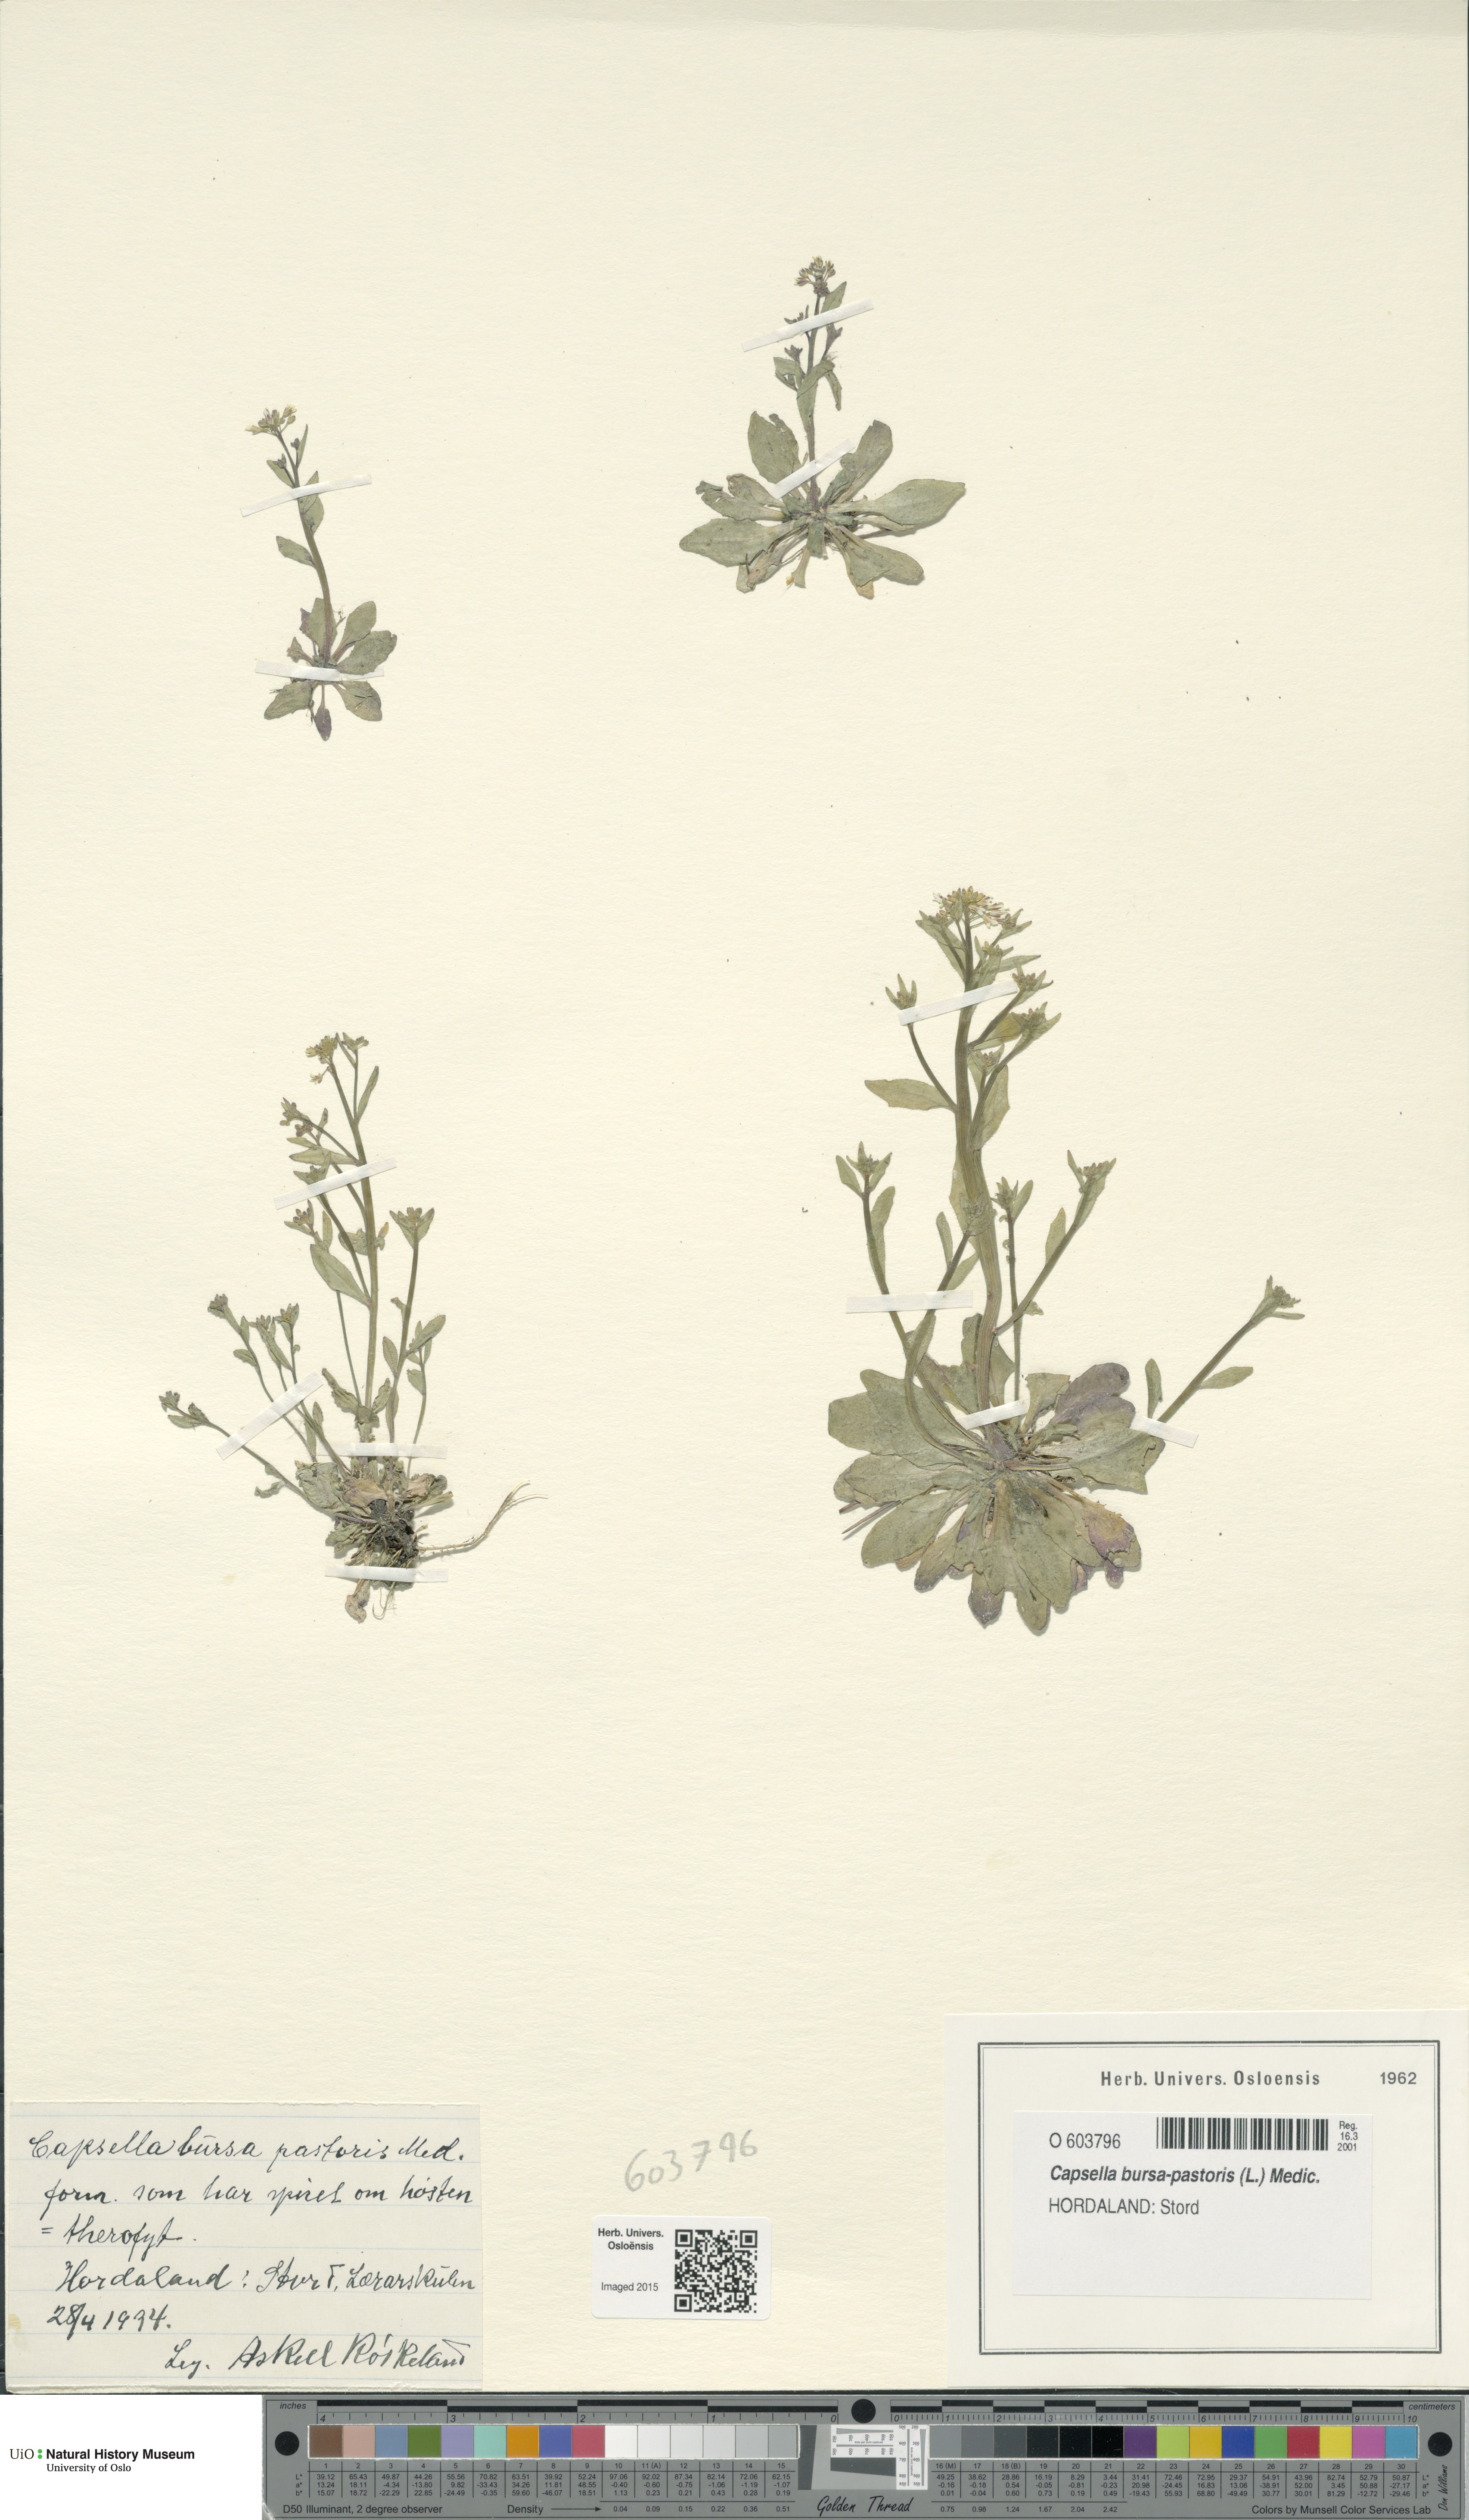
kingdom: Plantae
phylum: Tracheophyta
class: Magnoliopsida
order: Brassicales
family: Brassicaceae
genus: Capsella
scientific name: Capsella bursa-pastoris
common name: Shepherd's purse
